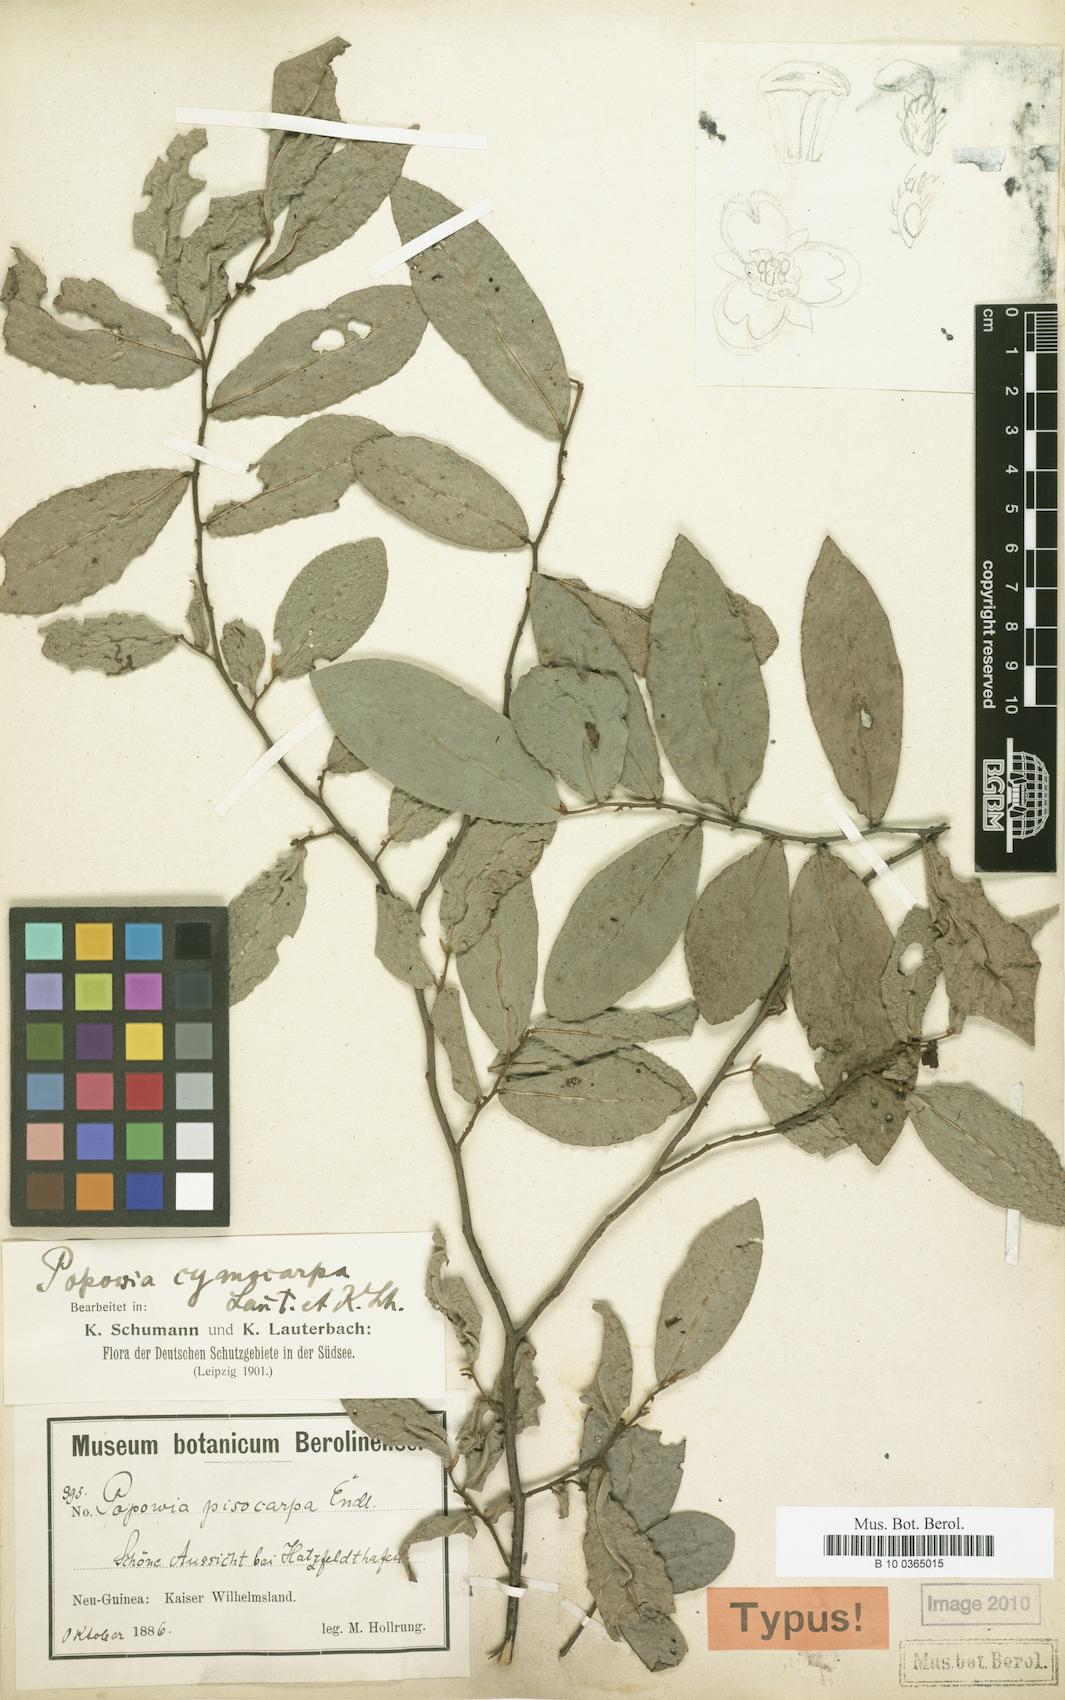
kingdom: Plantae
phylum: Tracheophyta
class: Magnoliopsida
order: Magnoliales
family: Annonaceae
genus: Popowia
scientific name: Popowia cyanocarpa
